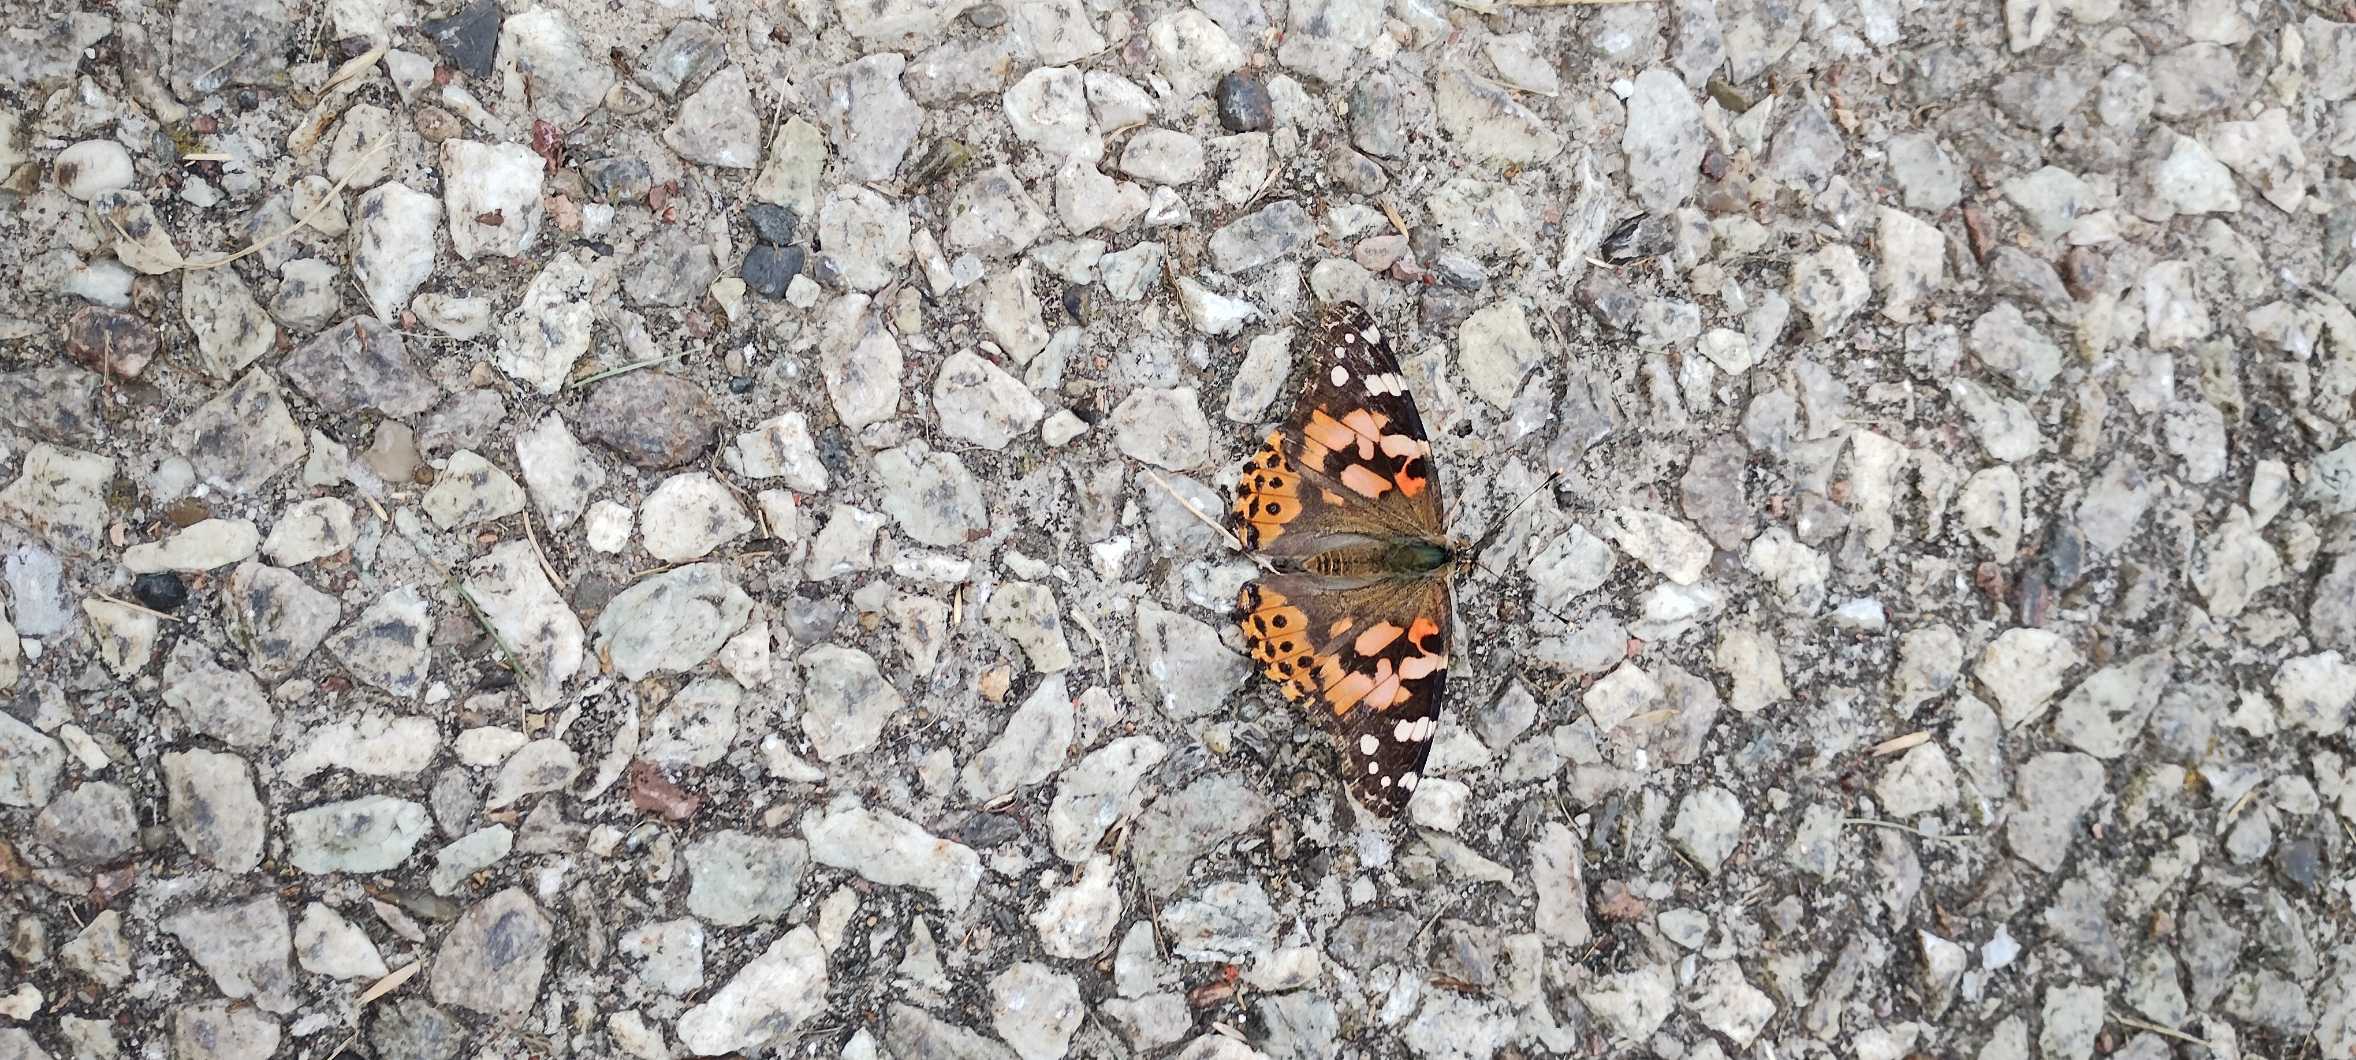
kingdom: Animalia
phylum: Arthropoda
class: Insecta
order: Lepidoptera
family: Nymphalidae
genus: Vanessa
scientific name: Vanessa cardui
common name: Tidselsommerfugl
